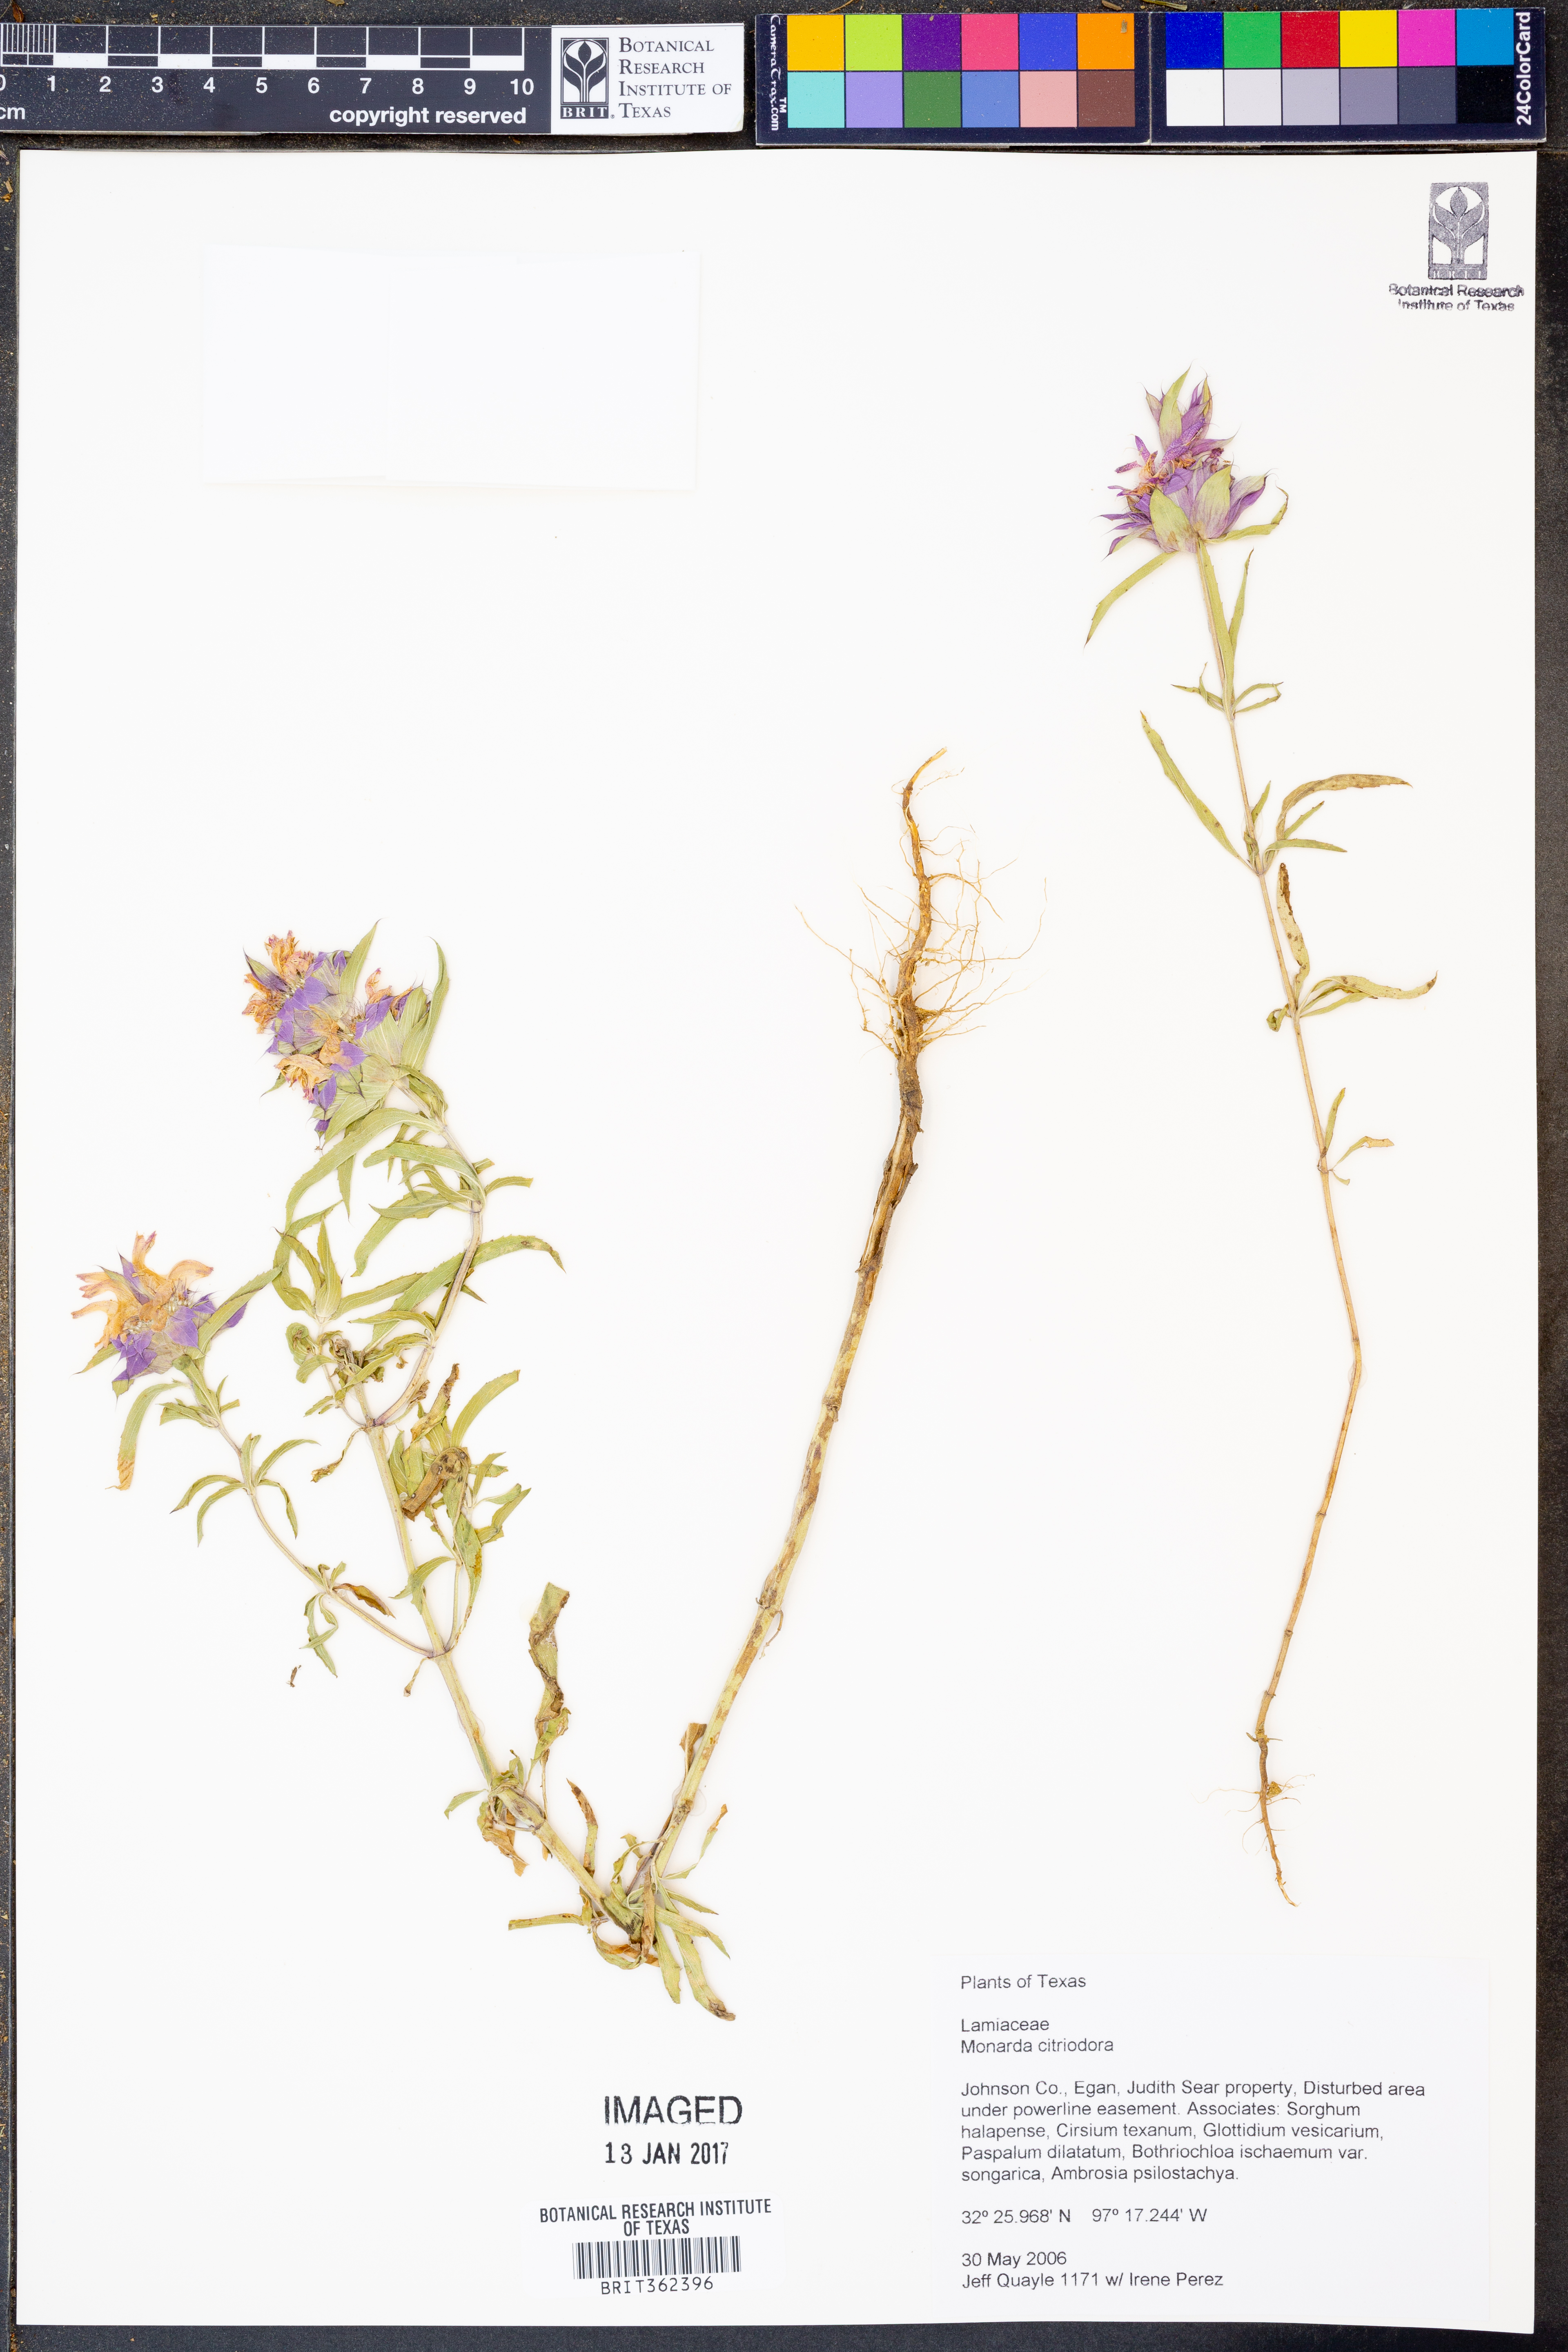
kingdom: Plantae
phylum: Tracheophyta
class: Magnoliopsida
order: Lamiales
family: Lamiaceae
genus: Monarda
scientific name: Monarda citriodora
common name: Lemon beebalm
